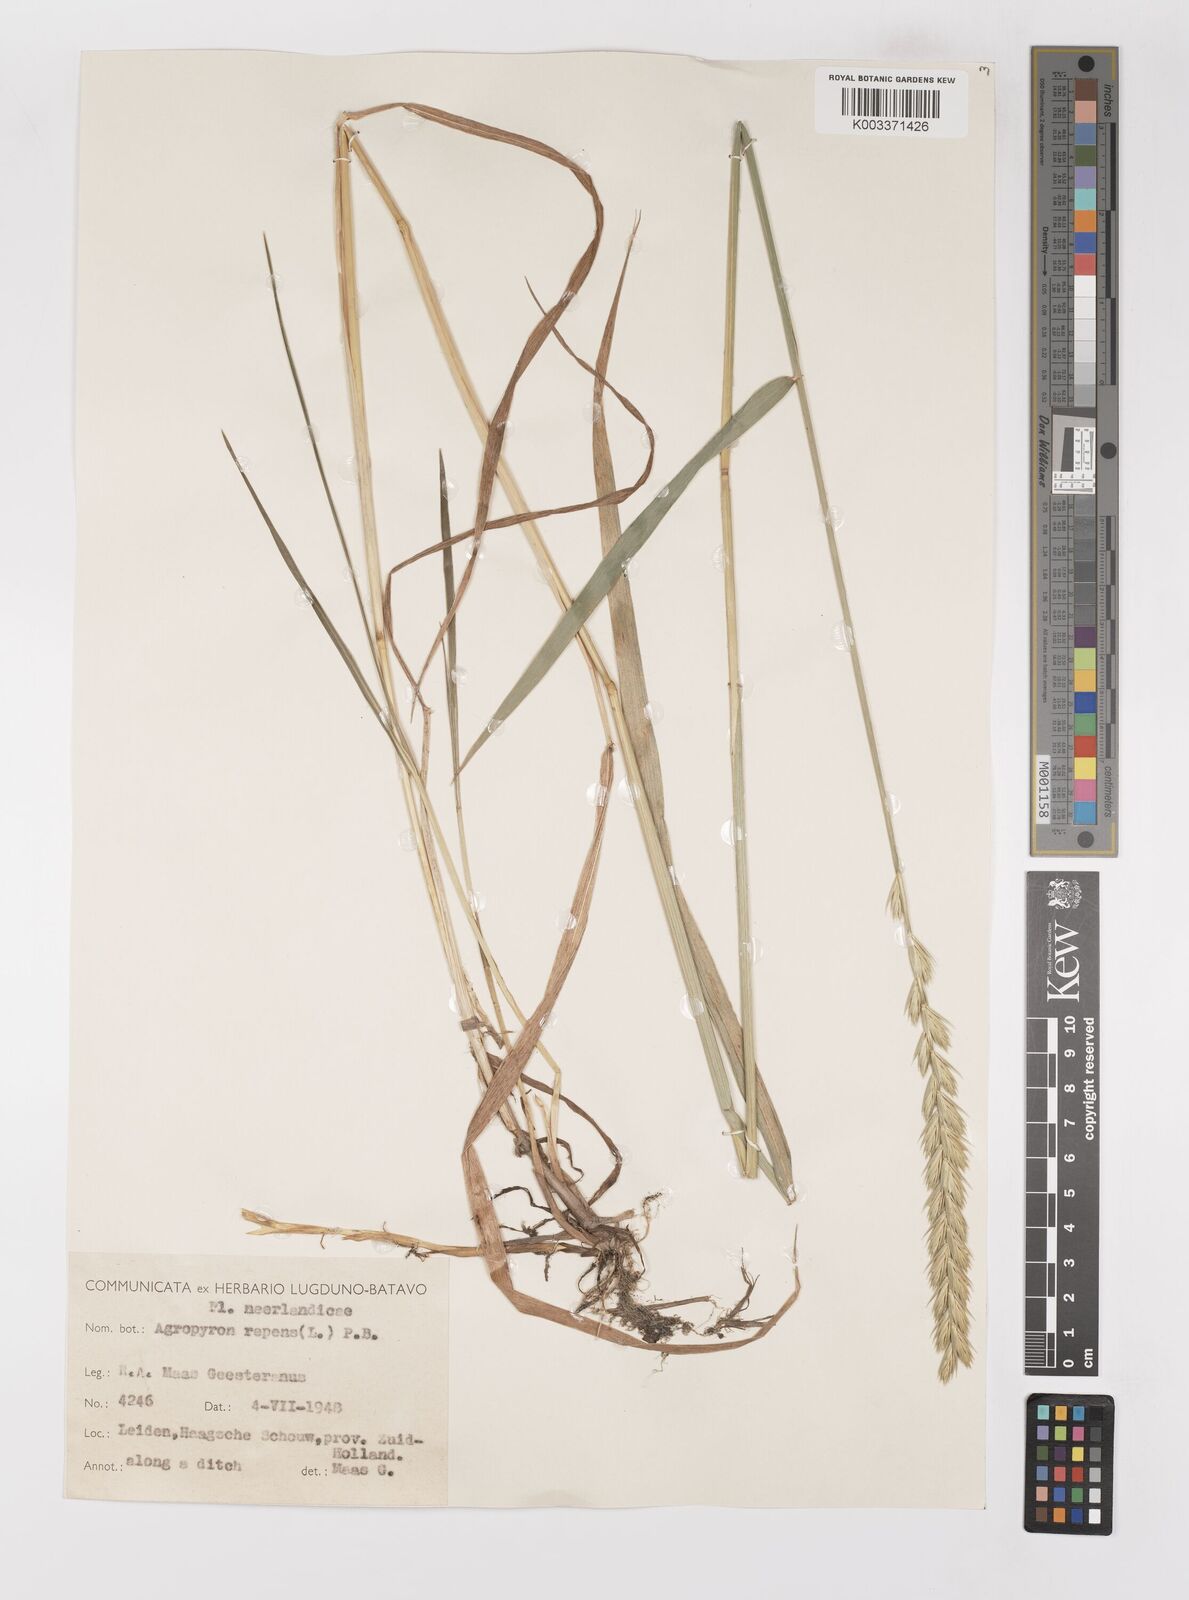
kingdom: Plantae
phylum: Tracheophyta
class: Liliopsida
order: Poales
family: Poaceae
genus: Elymus
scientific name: Elymus repens
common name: Quackgrass
